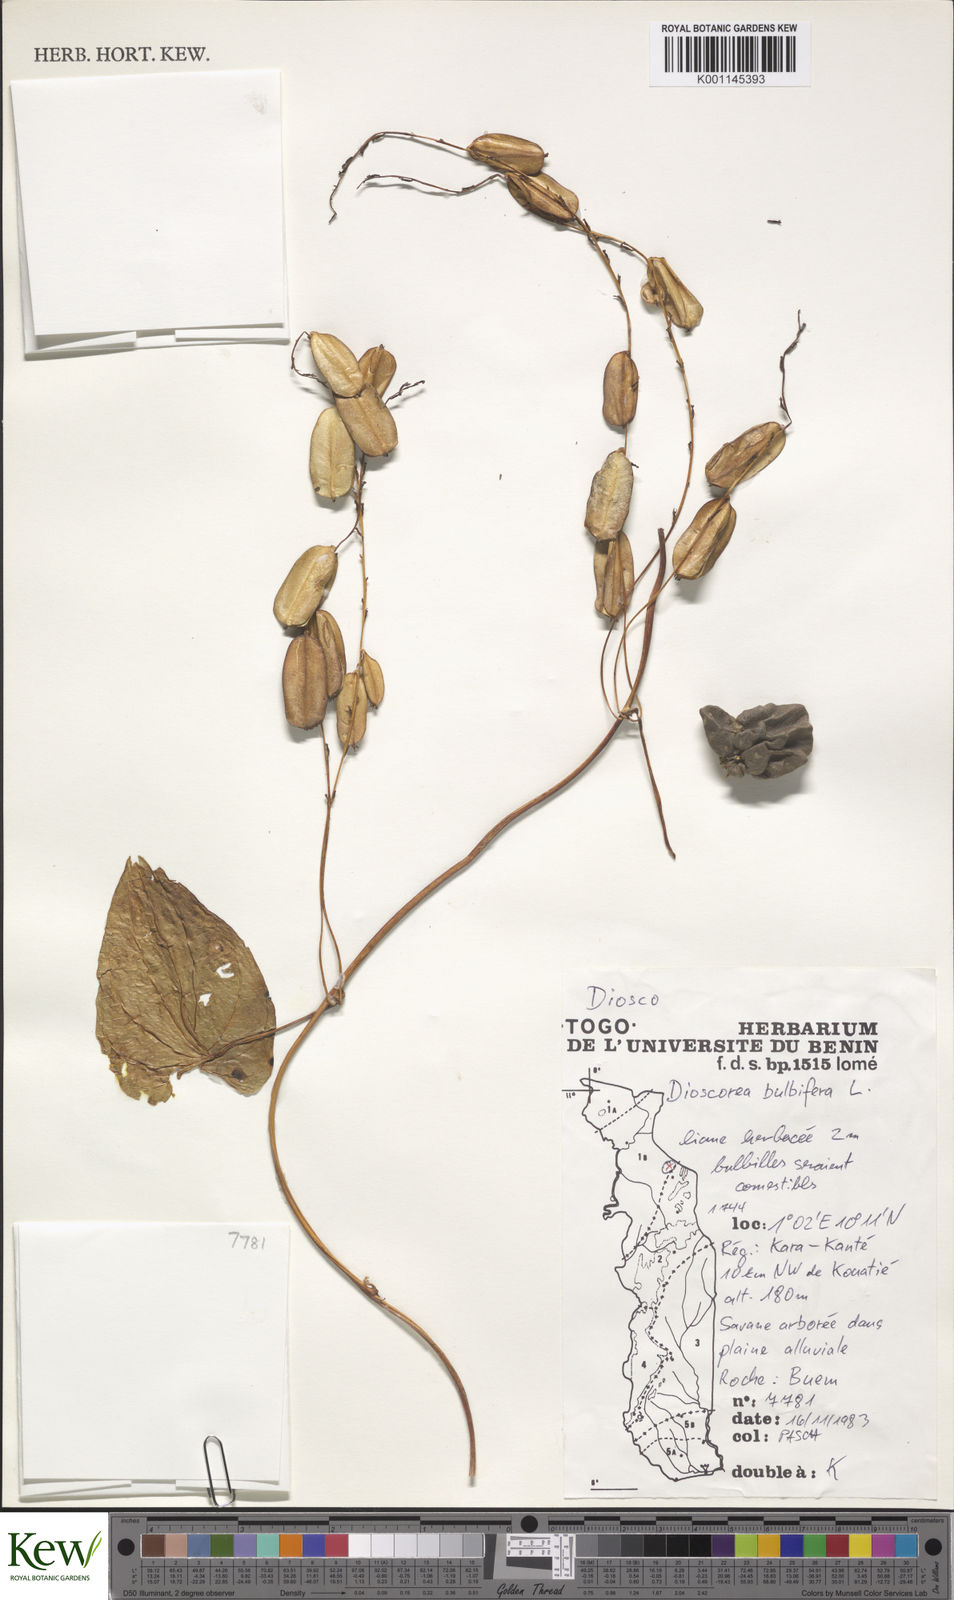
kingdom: Plantae
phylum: Tracheophyta
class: Liliopsida
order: Dioscoreales
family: Dioscoreaceae
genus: Dioscorea
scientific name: Dioscorea bulbifera
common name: Air yam
